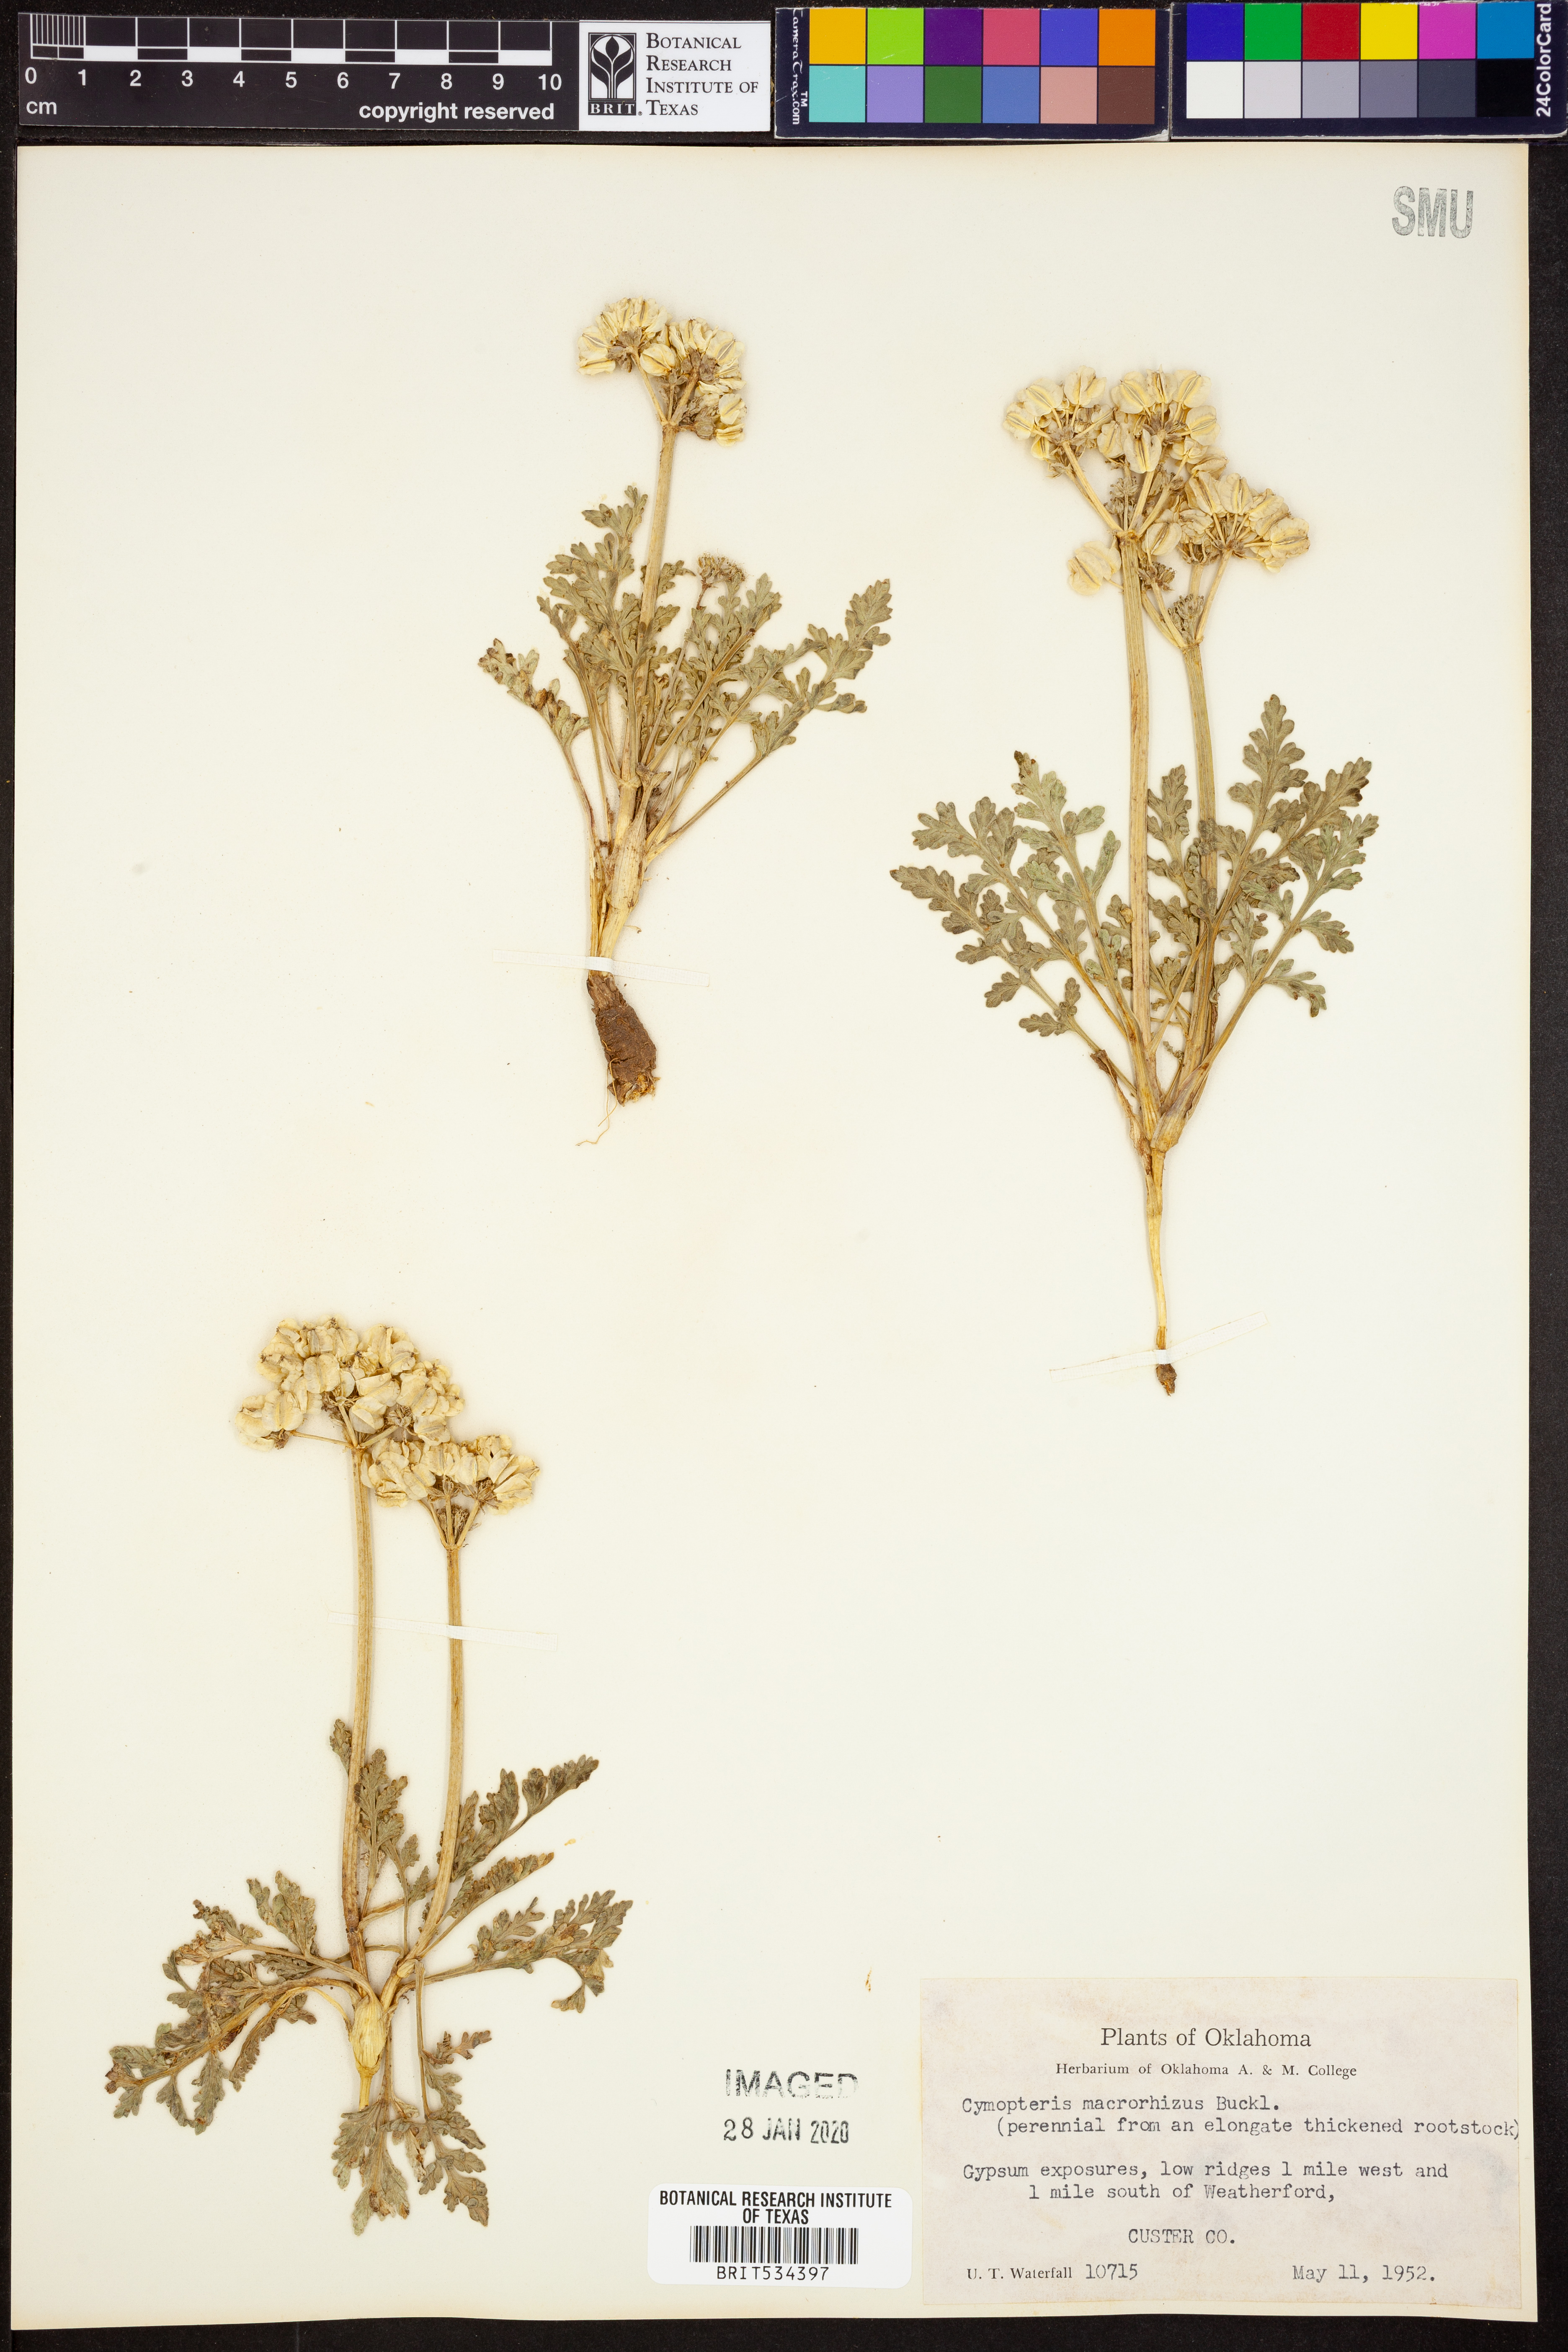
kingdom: Plantae
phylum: Tracheophyta
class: Magnoliopsida
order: Apiales
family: Apiaceae
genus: Vesper
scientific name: Vesper macrorhizus
